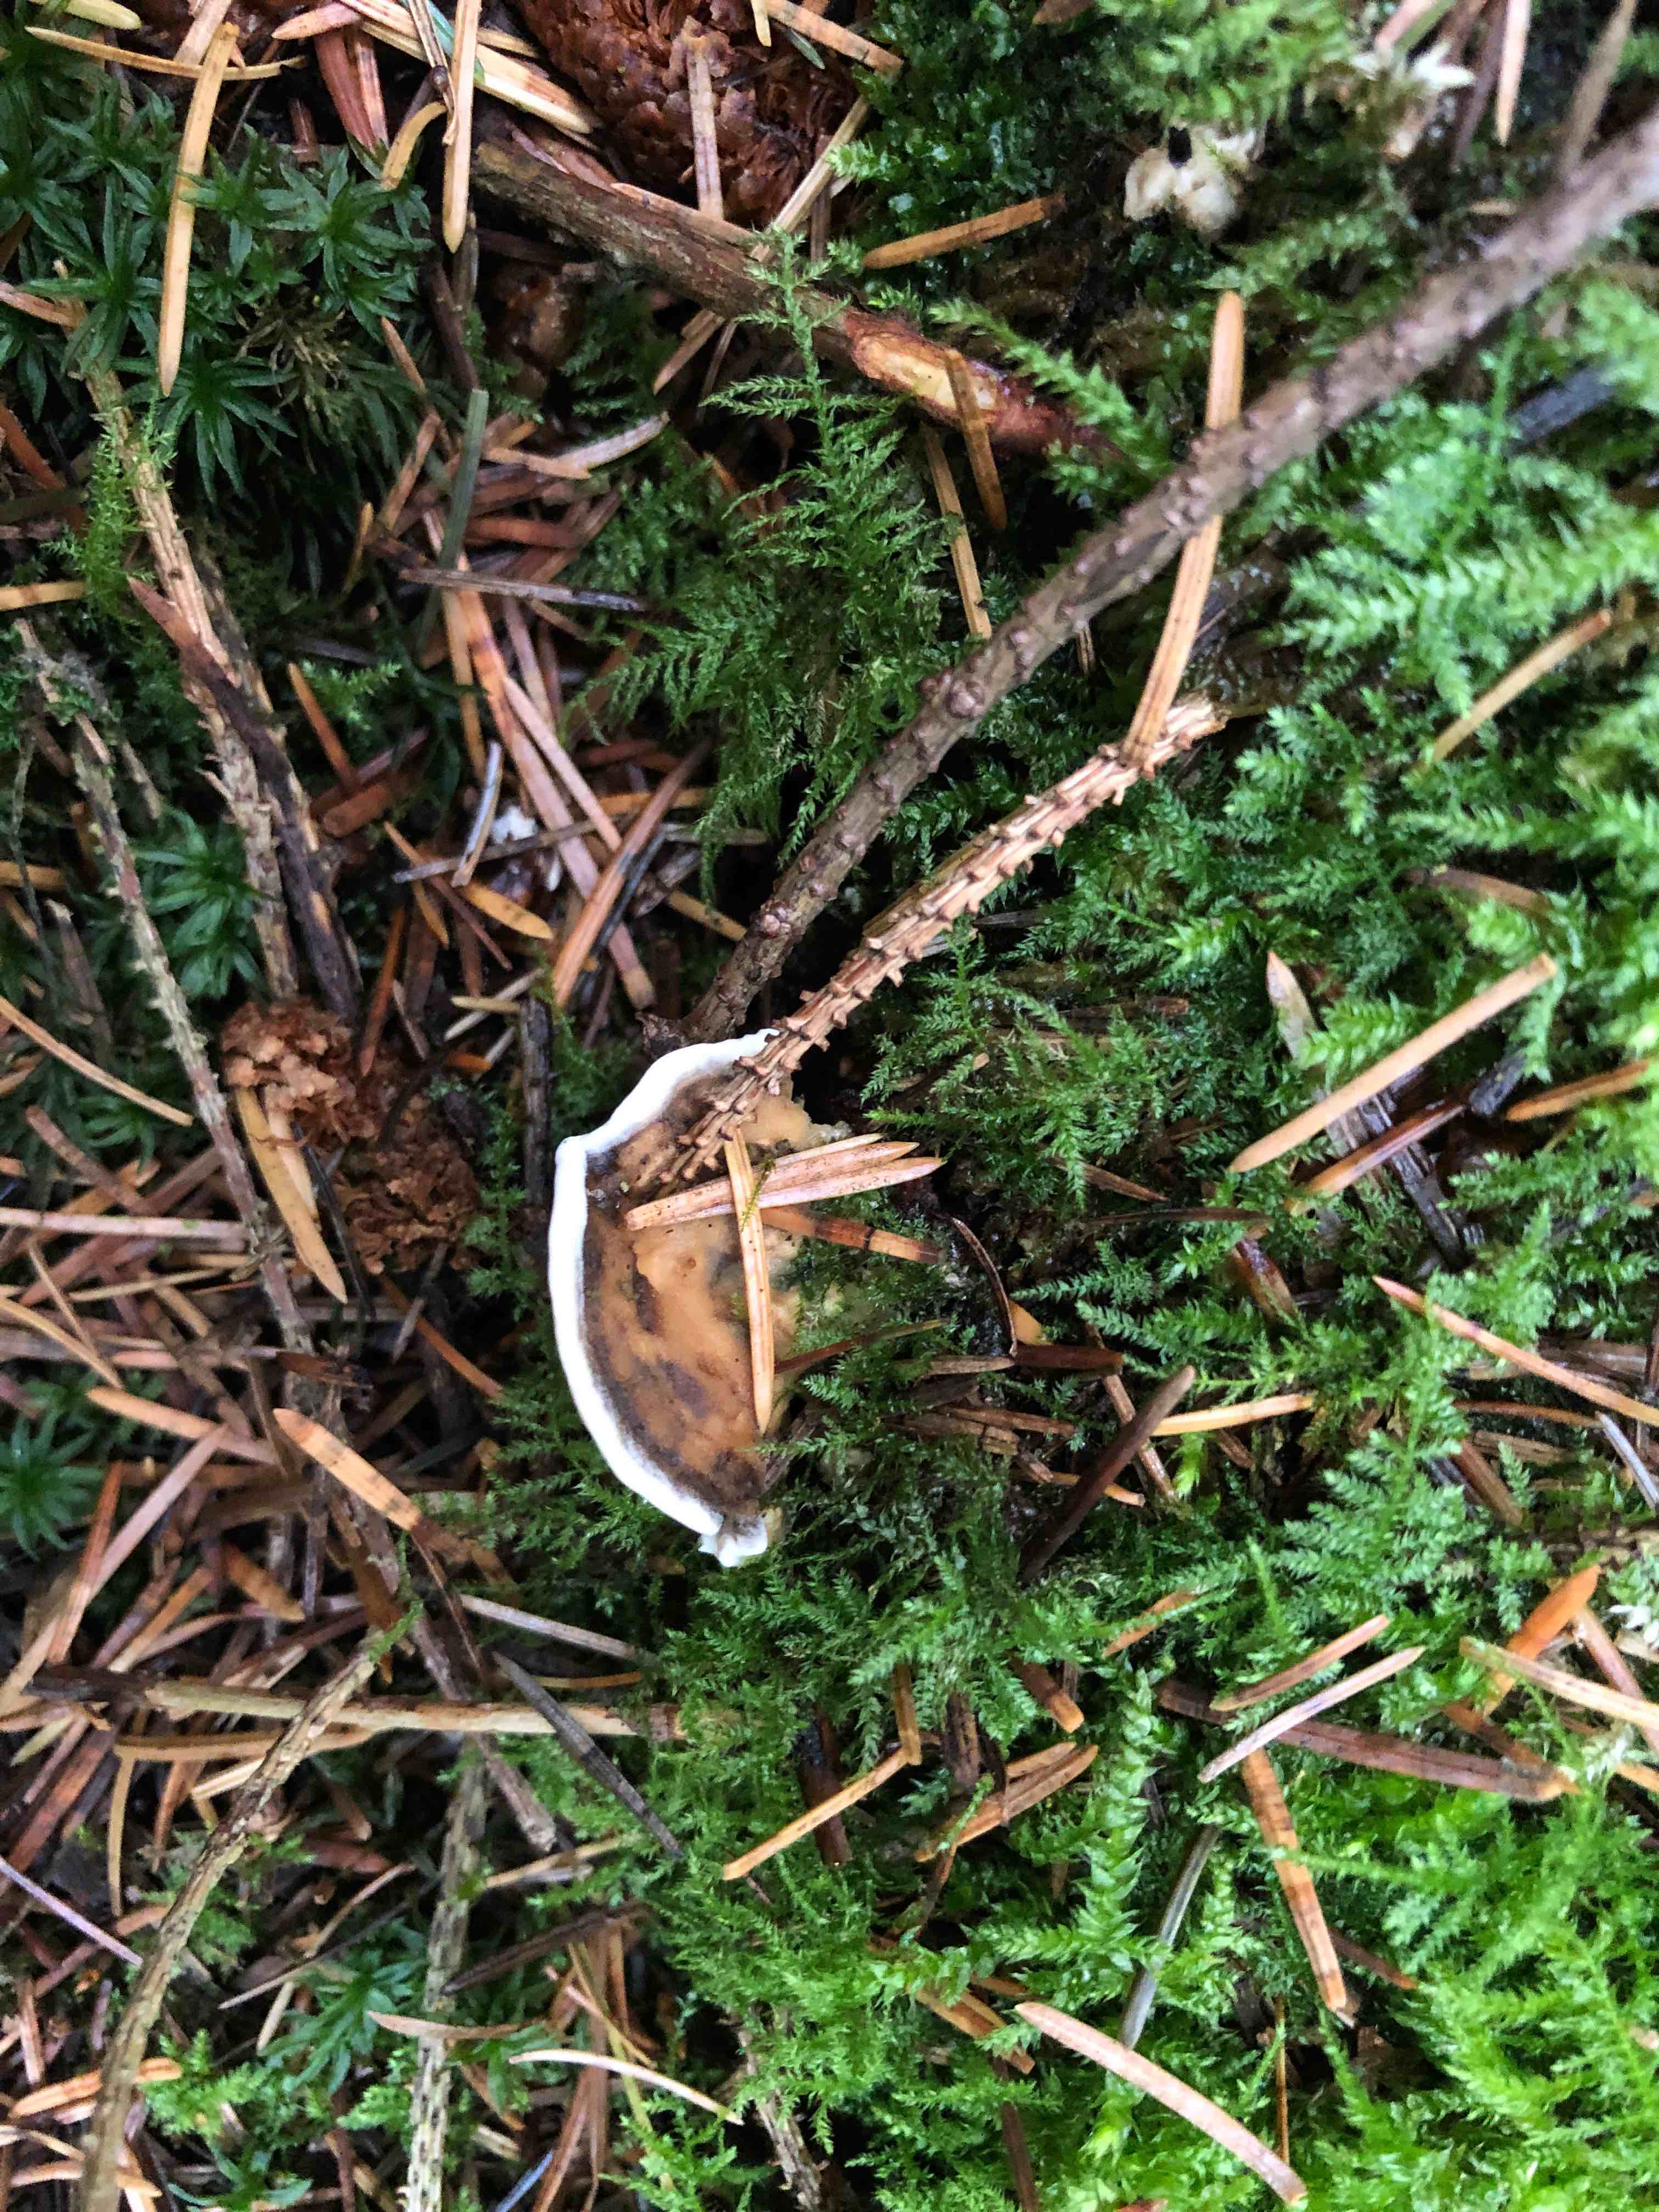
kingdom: Fungi
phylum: Basidiomycota
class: Agaricomycetes
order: Polyporales
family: Phanerochaetaceae
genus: Bjerkandera
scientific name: Bjerkandera adusta
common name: sveden sodporesvamp
